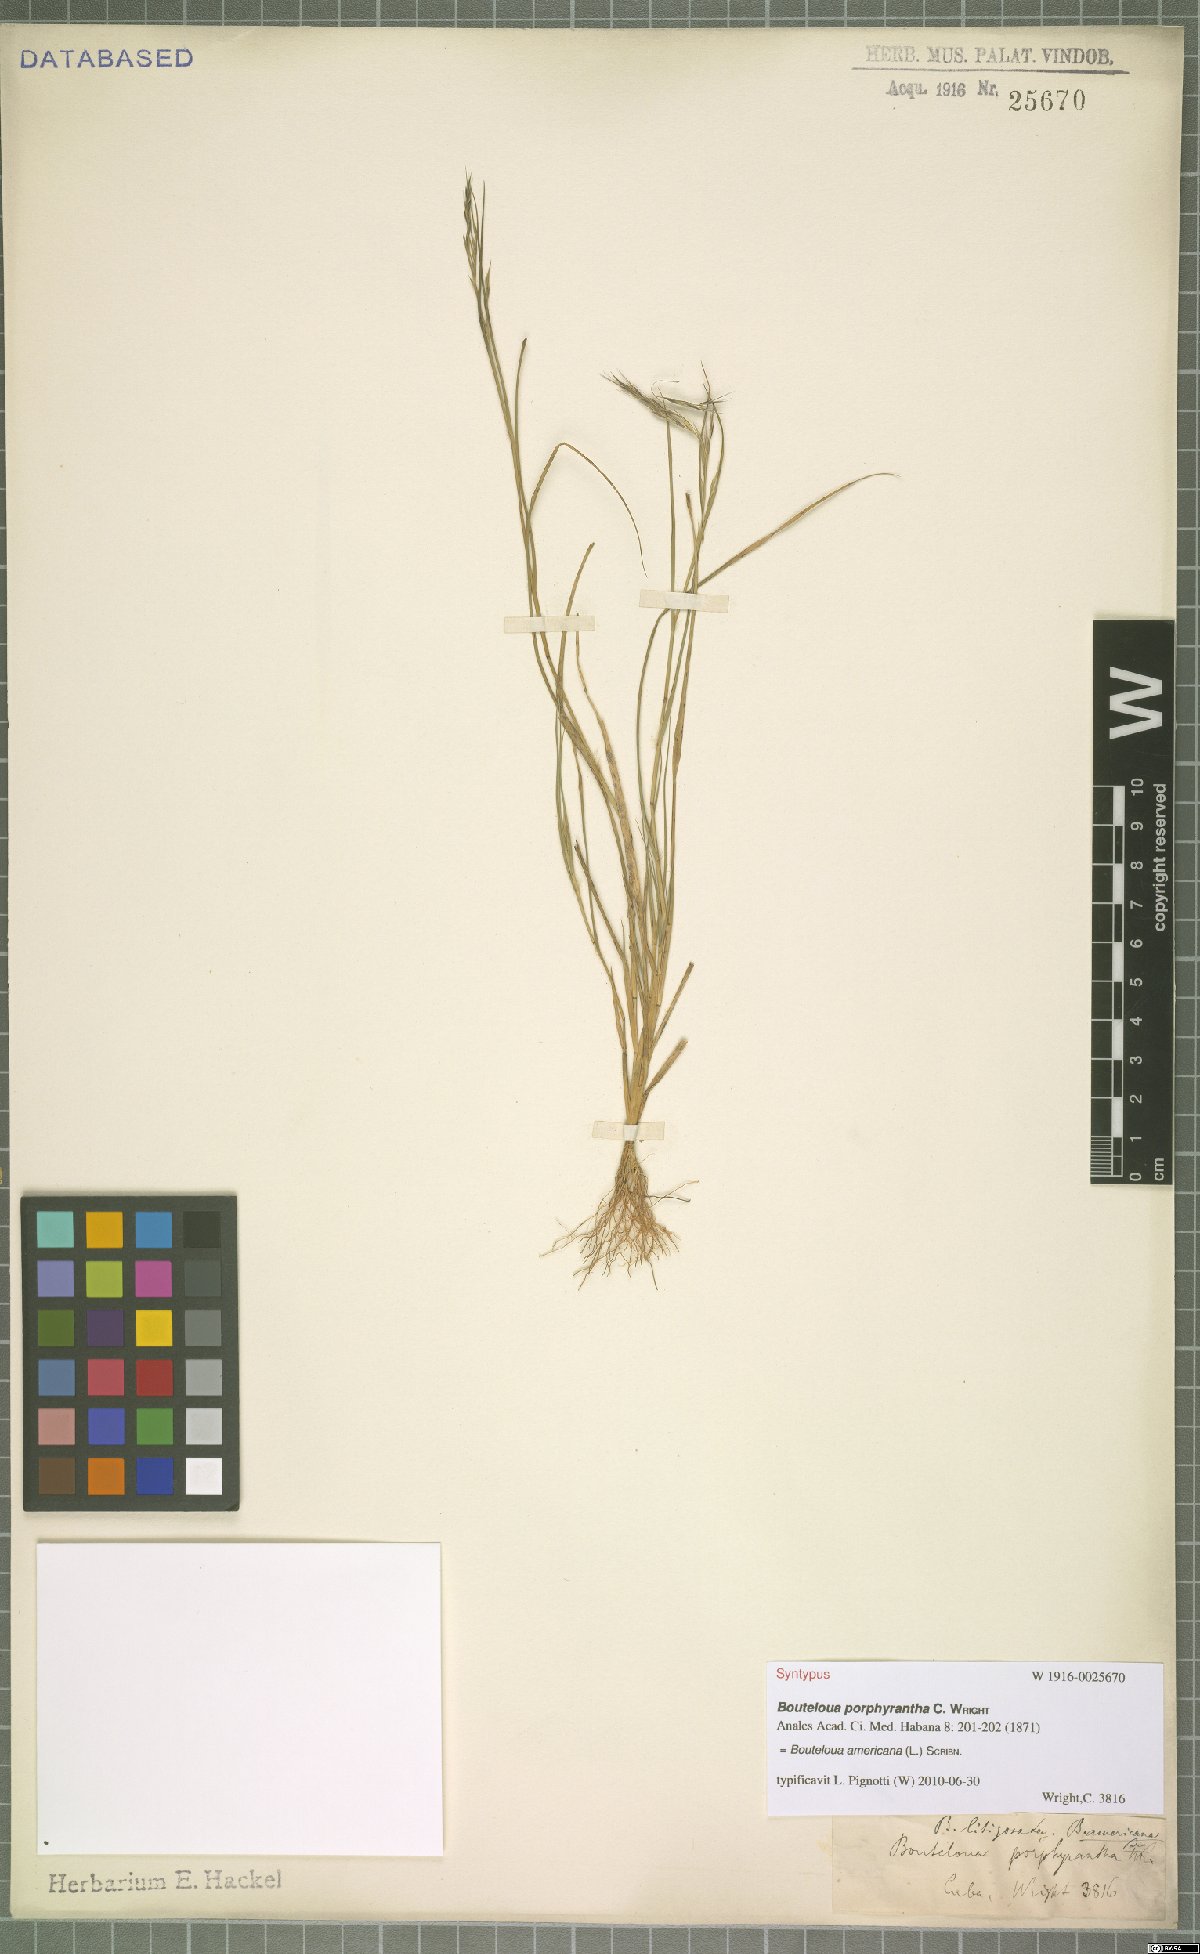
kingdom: Plantae
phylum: Tracheophyta
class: Liliopsida
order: Poales
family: Poaceae
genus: Bouteloua
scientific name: Bouteloua americana
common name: Mule grass
